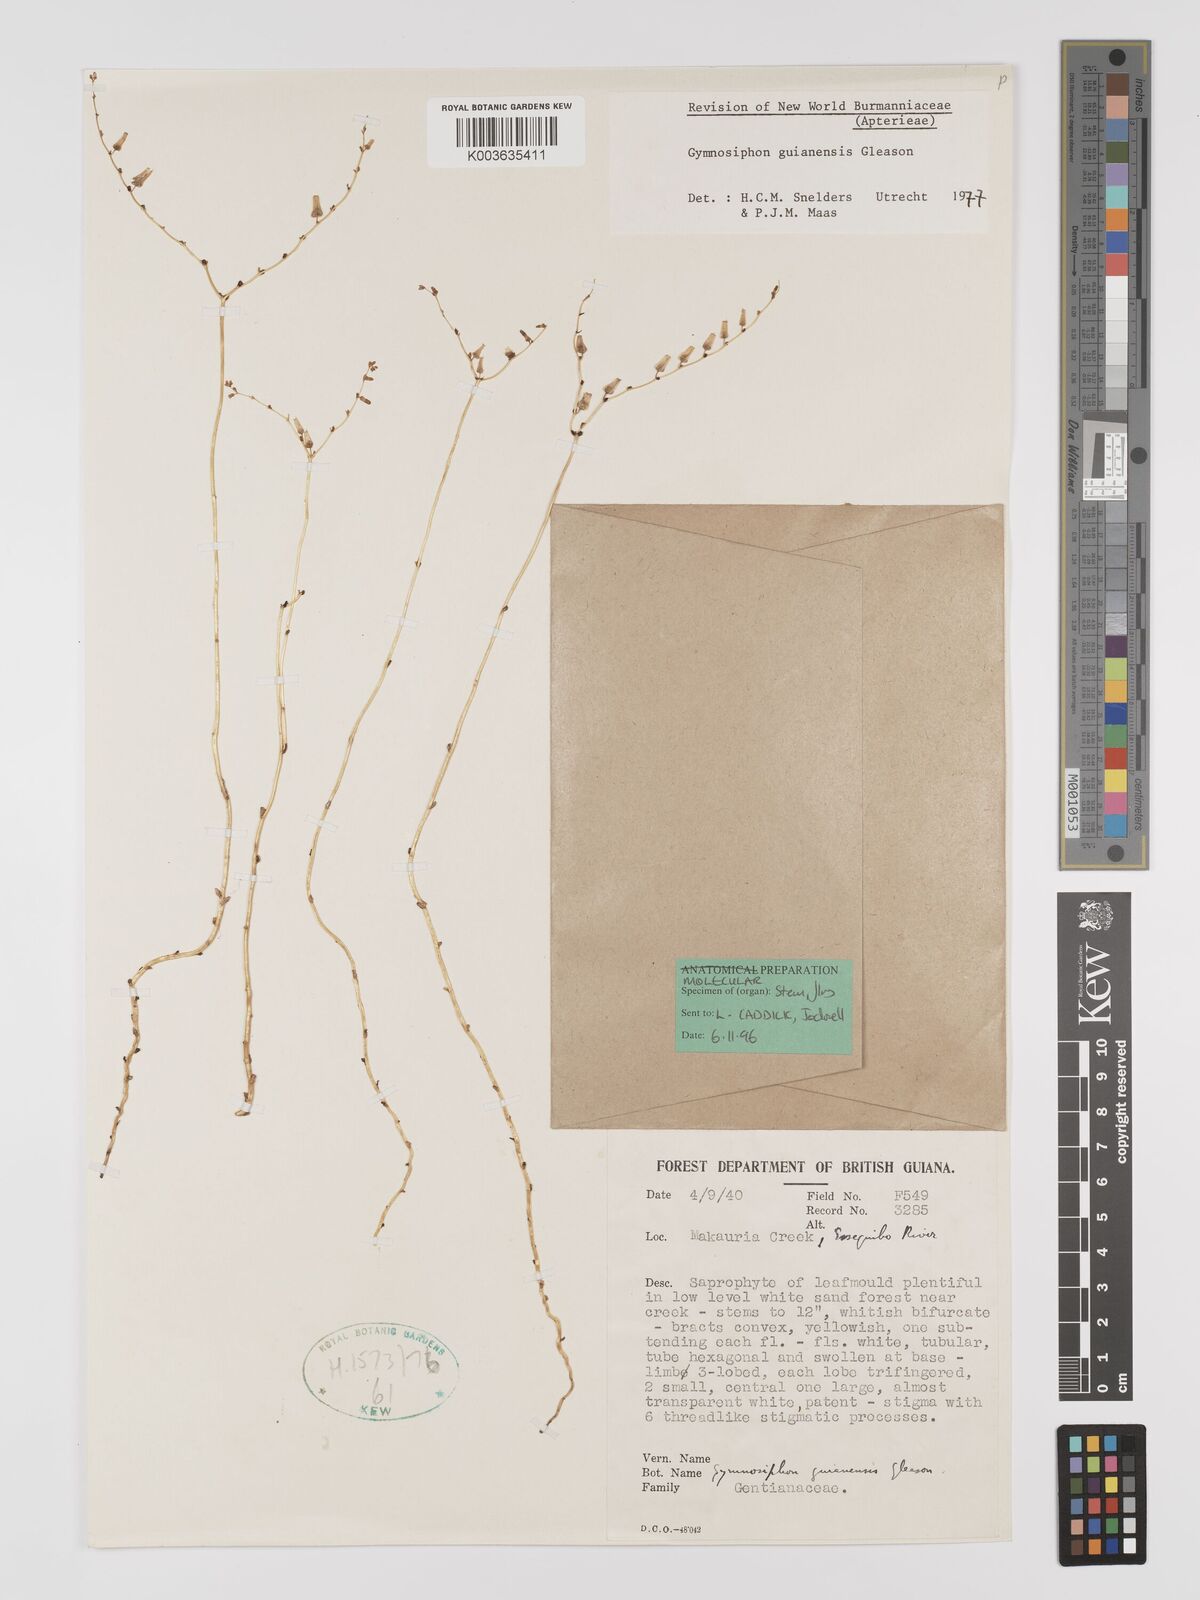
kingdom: Plantae
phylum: Tracheophyta
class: Liliopsida
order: Dioscoreales
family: Burmanniaceae
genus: Gymnosiphon
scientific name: Gymnosiphon guianensis
